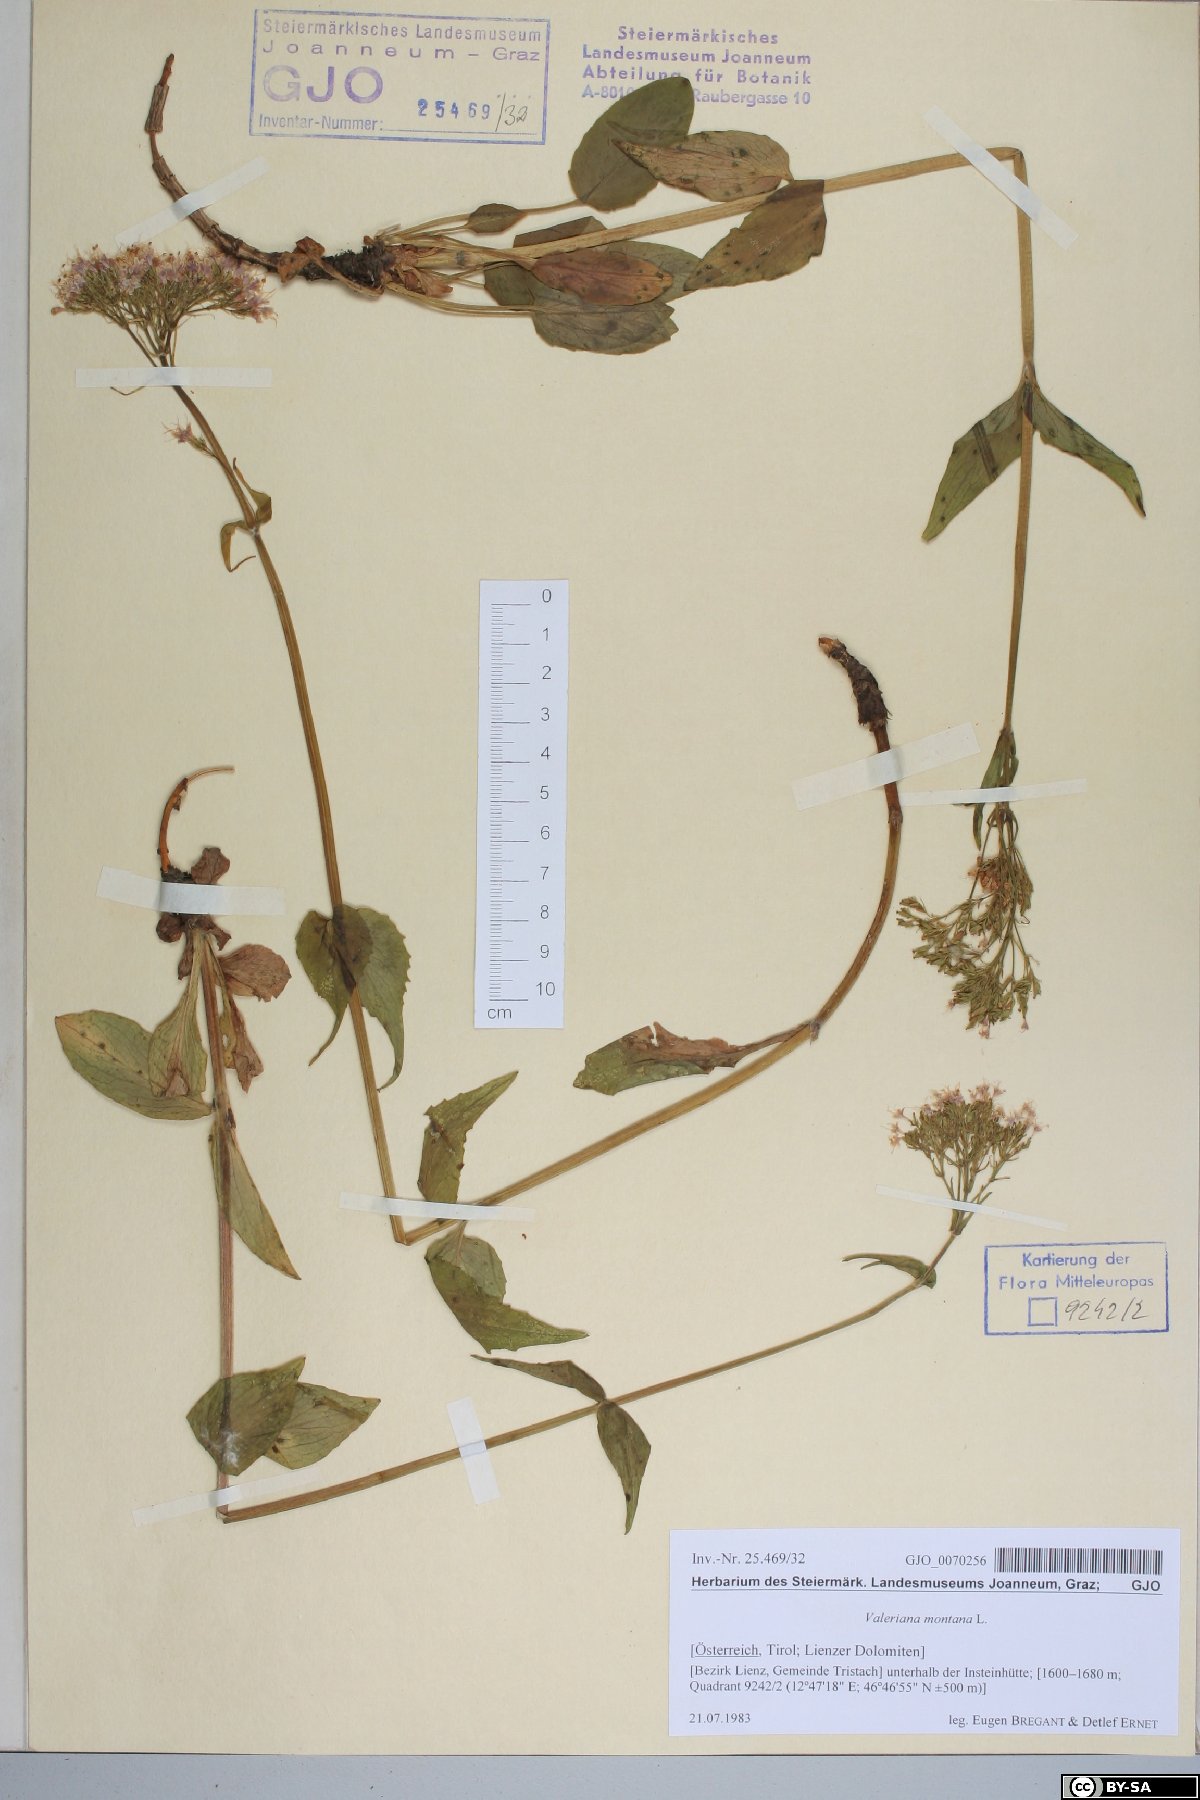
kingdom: Plantae
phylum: Tracheophyta
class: Magnoliopsida
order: Dipsacales
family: Caprifoliaceae
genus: Valeriana
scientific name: Valeriana montana
